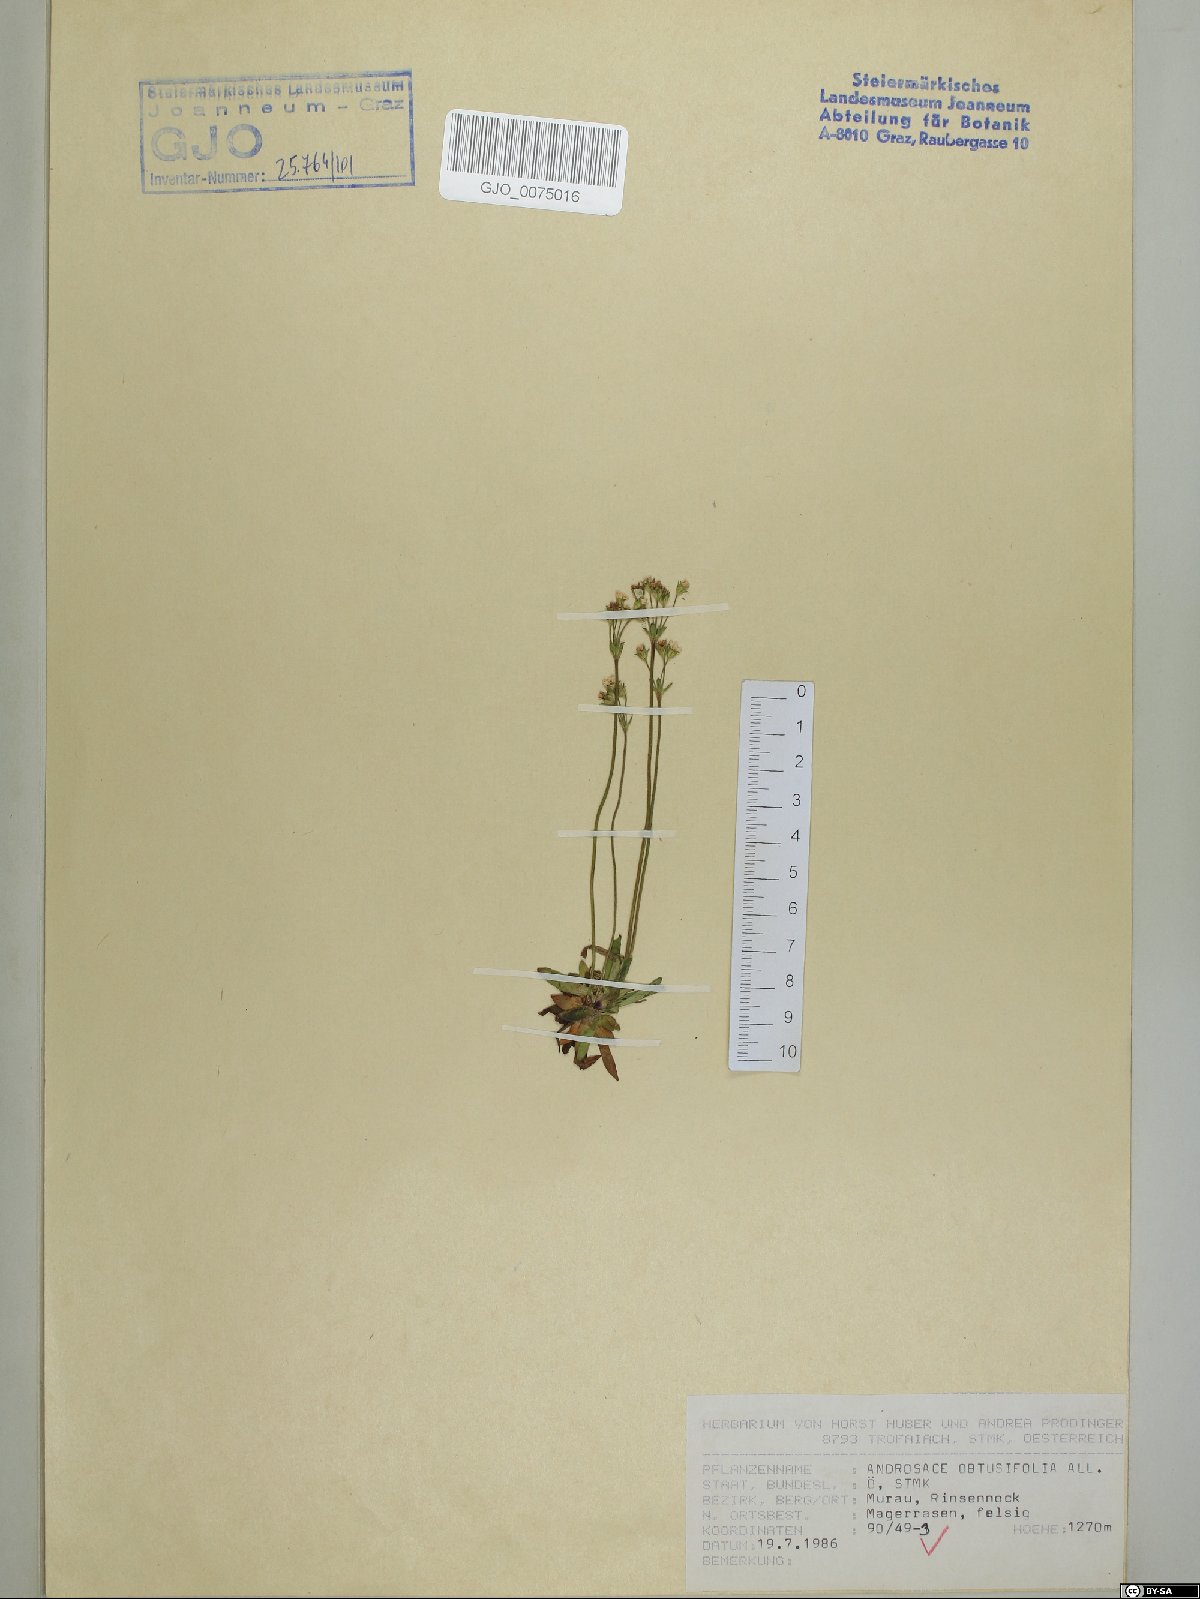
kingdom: Plantae
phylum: Tracheophyta
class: Magnoliopsida
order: Ericales
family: Primulaceae
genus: Androsace
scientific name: Androsace obtusifolia
